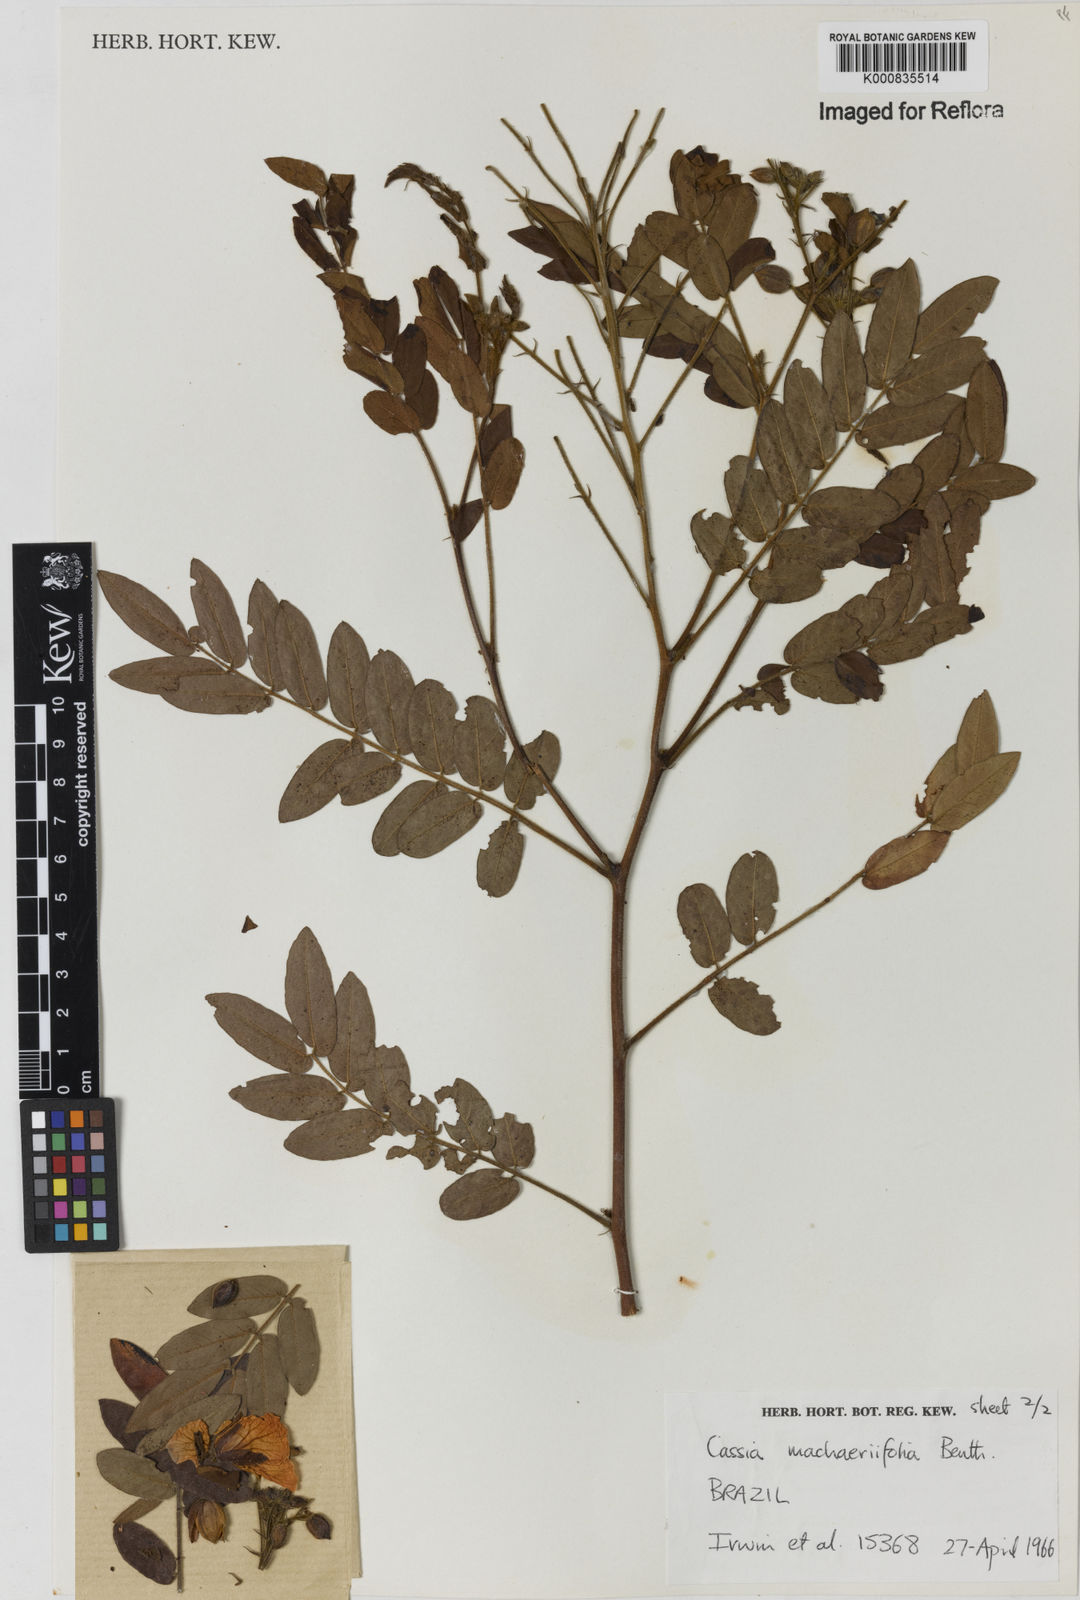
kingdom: Plantae
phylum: Tracheophyta
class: Magnoliopsida
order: Fabales
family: Fabaceae
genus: Chamaecrista
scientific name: Chamaecrista machaeriifolia
